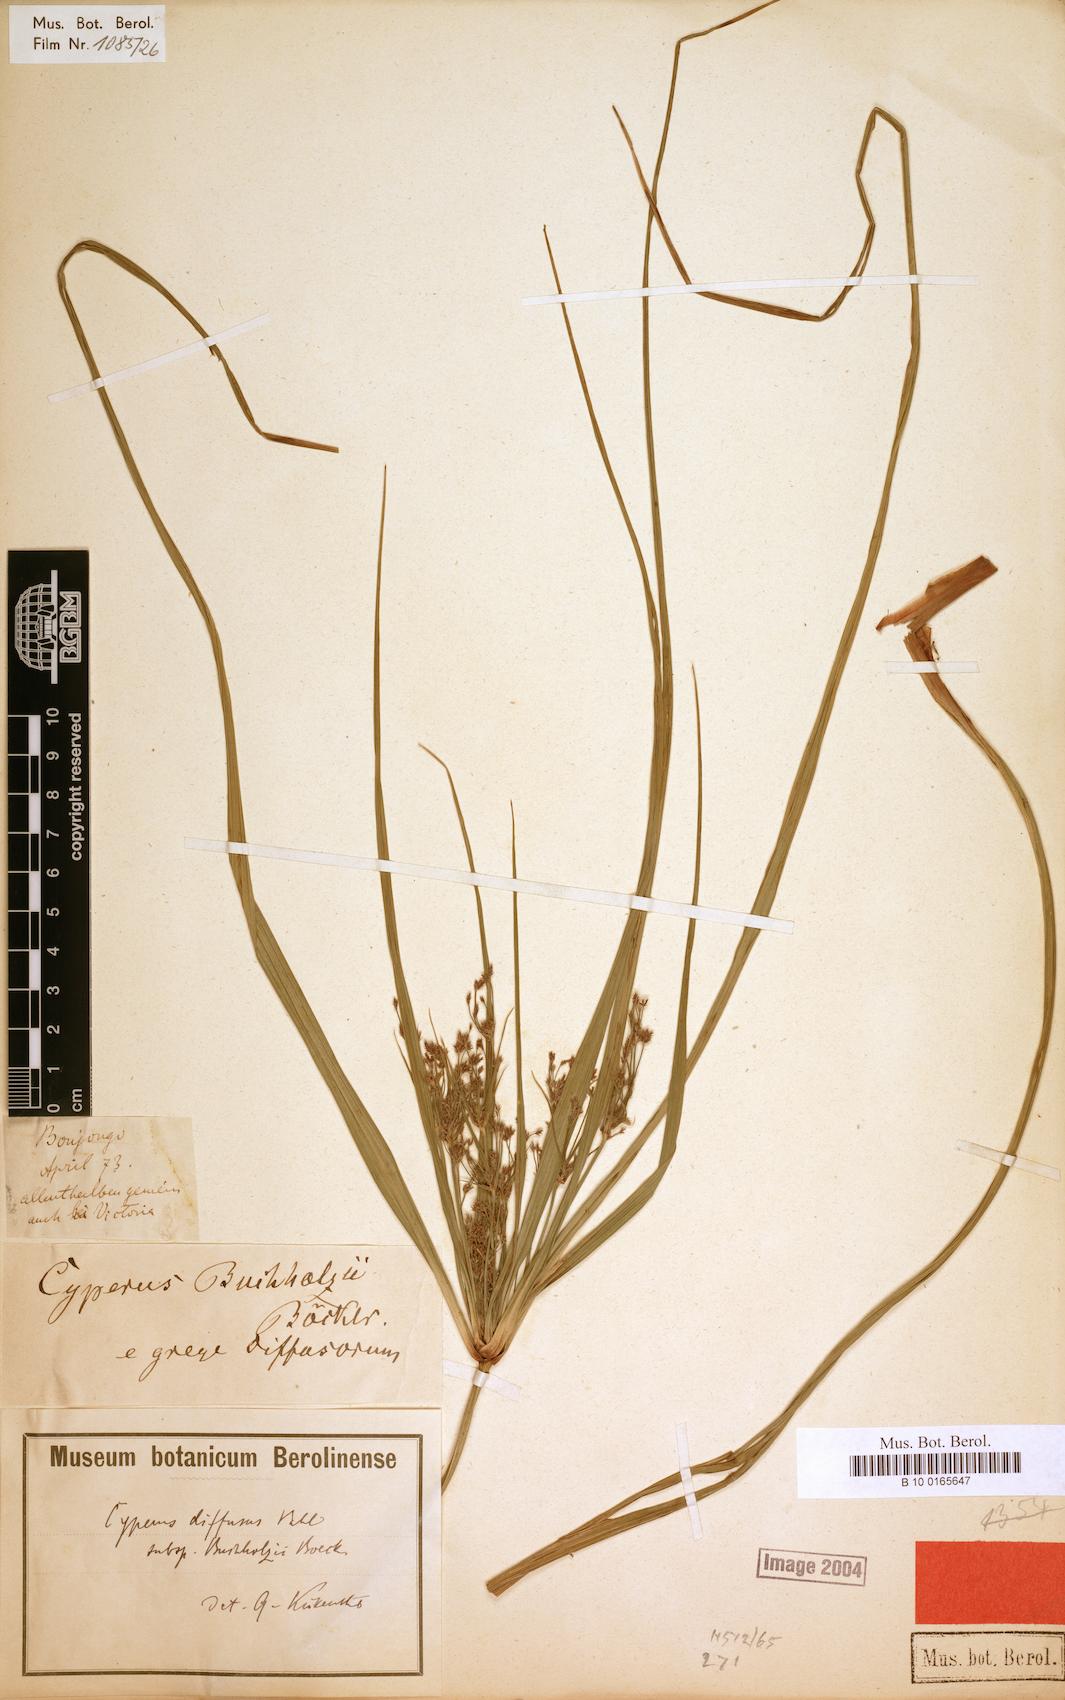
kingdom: Plantae
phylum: Tracheophyta
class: Liliopsida
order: Poales
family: Cyperaceae
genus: Cyperus
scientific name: Cyperus buchholzii
